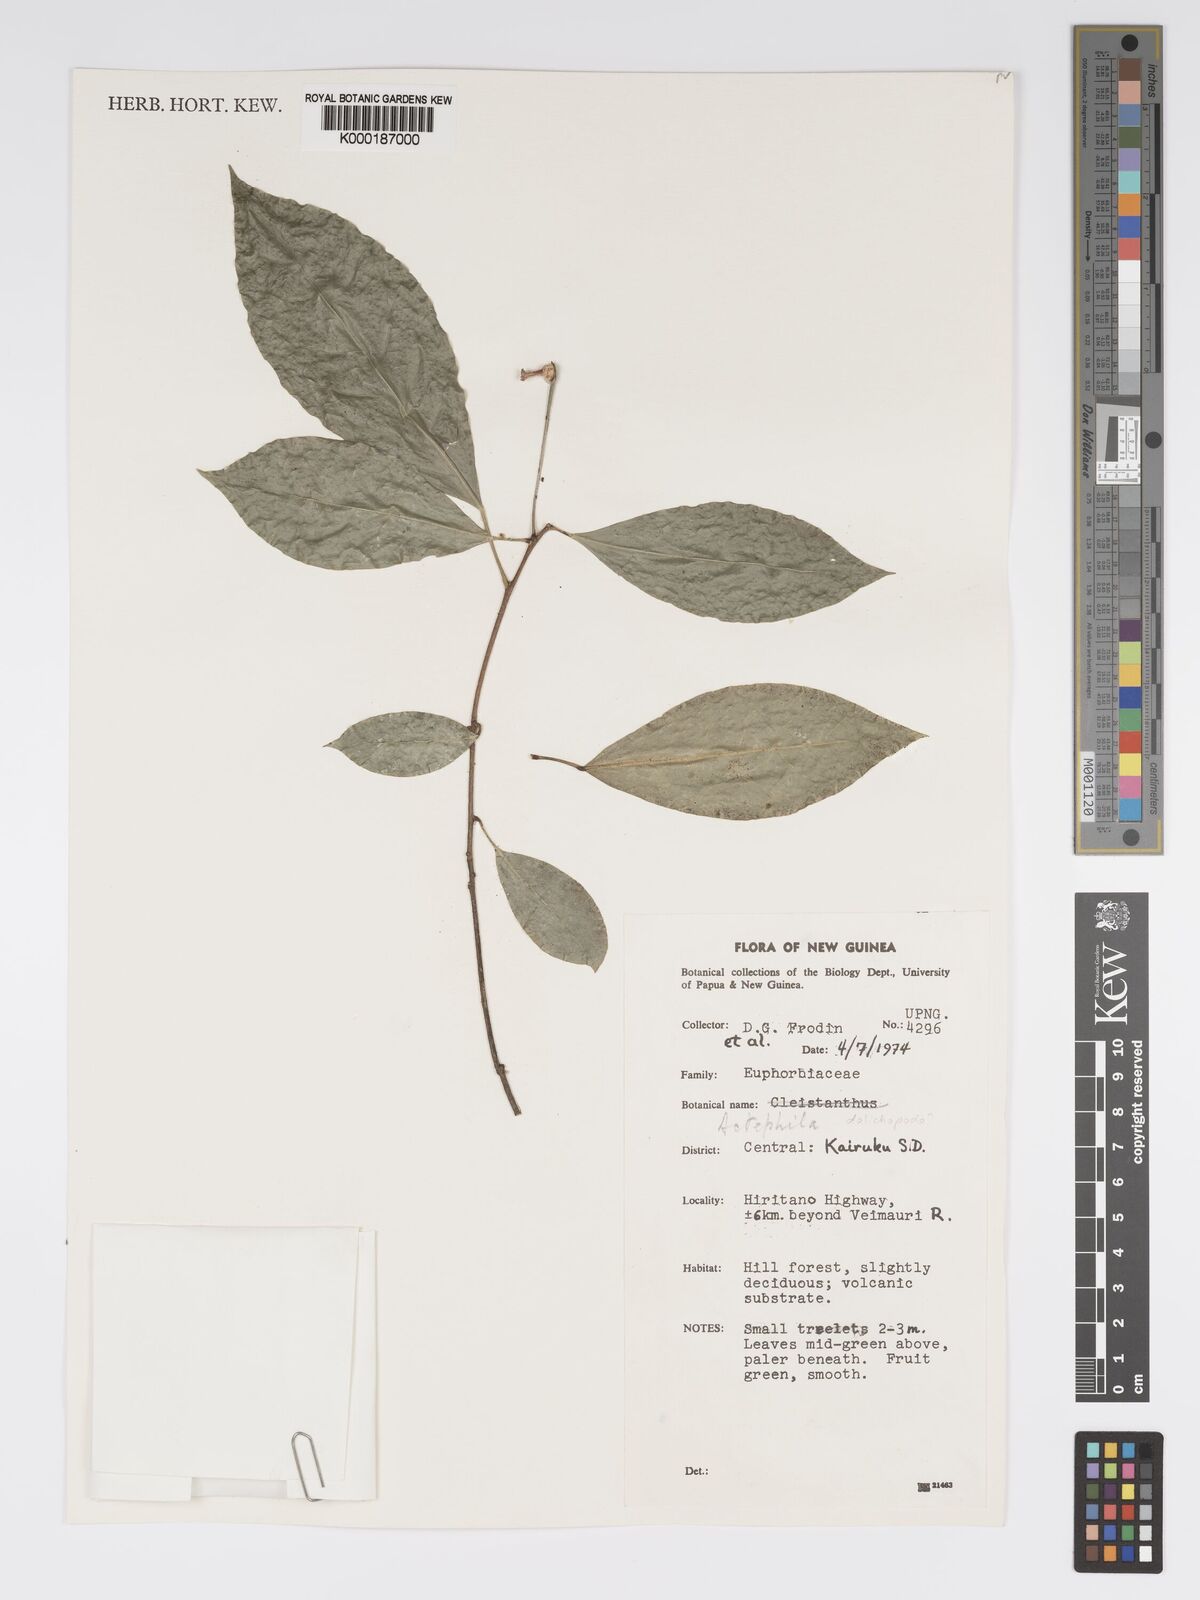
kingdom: Plantae
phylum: Tracheophyta
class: Magnoliopsida
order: Malpighiales
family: Phyllanthaceae
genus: Actephila
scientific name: Actephila dolichopoda
